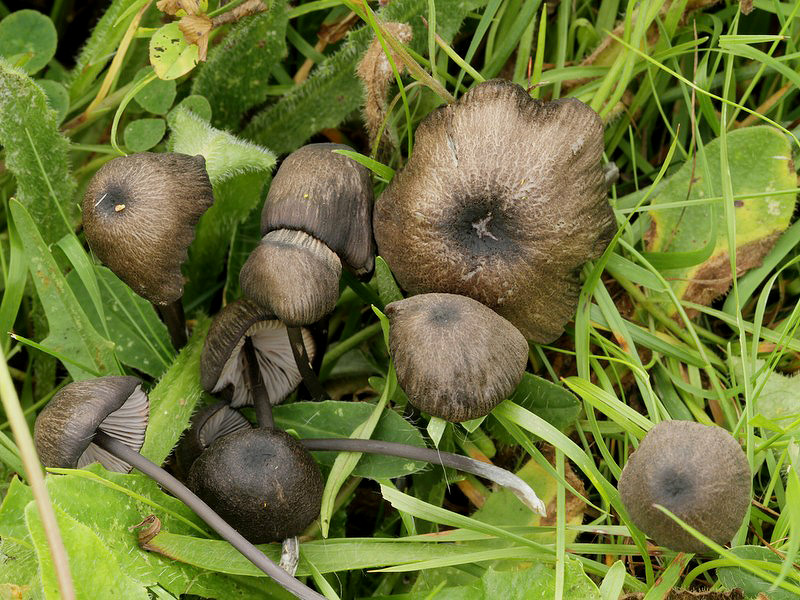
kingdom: Fungi
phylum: Basidiomycota
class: Agaricomycetes
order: Agaricales
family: Entolomataceae
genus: Entoloma
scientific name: Entoloma chalybeum
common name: blåbladet rødblad
